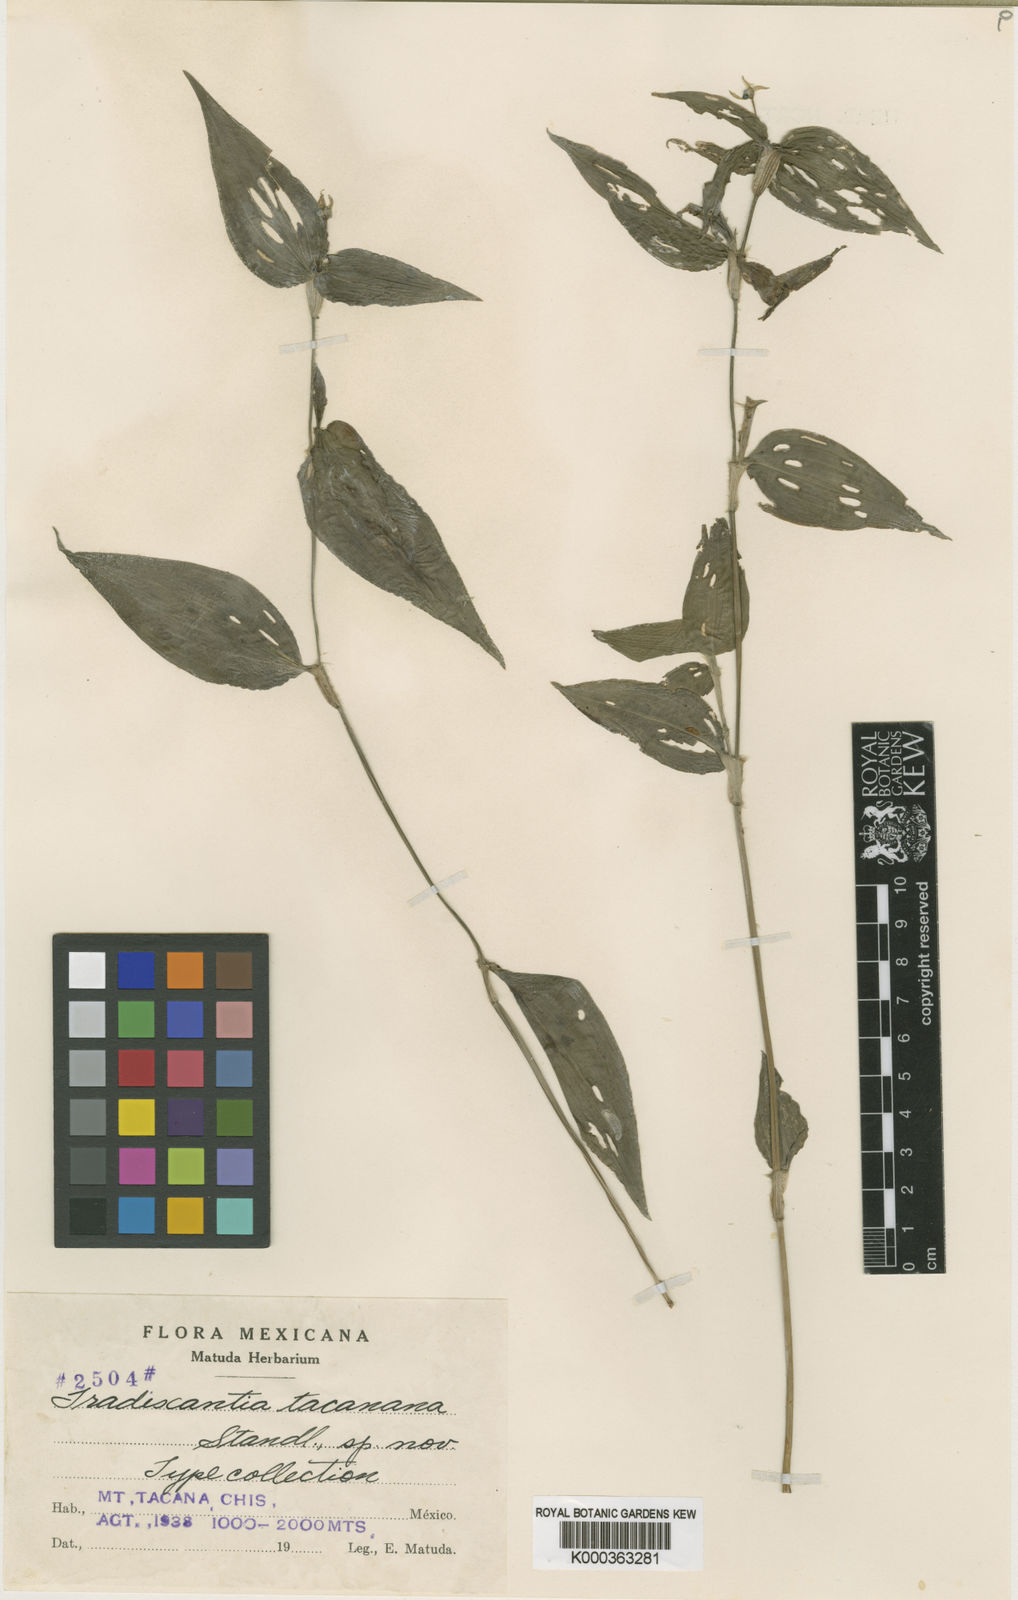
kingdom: Plantae
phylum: Tracheophyta
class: Liliopsida
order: Commelinales
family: Commelinaceae
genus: Elasis
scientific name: Elasis guatemalensis
